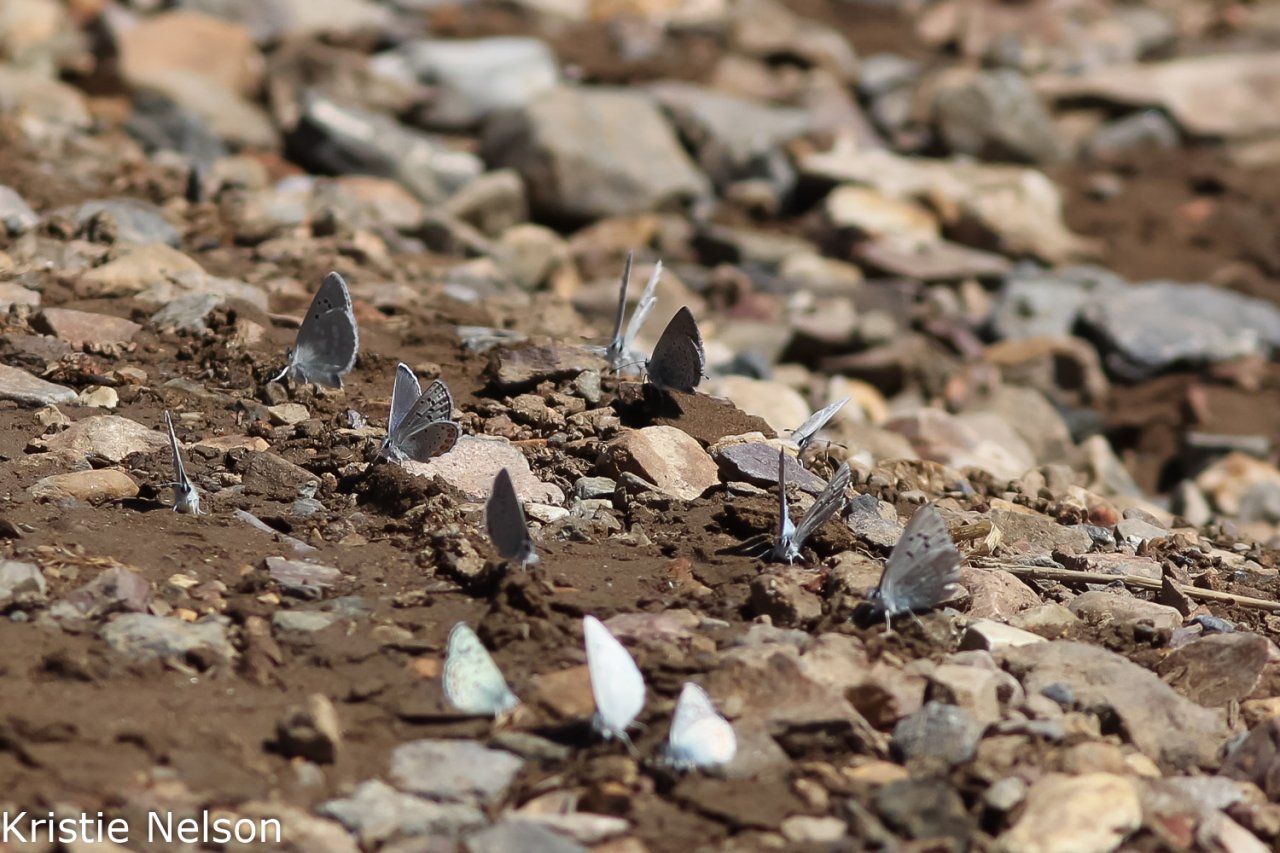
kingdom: Animalia
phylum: Arthropoda
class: Insecta
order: Lepidoptera
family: Lycaenidae
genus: Elkalyce
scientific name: Elkalyce amyntula
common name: Western Tailed-Blue
